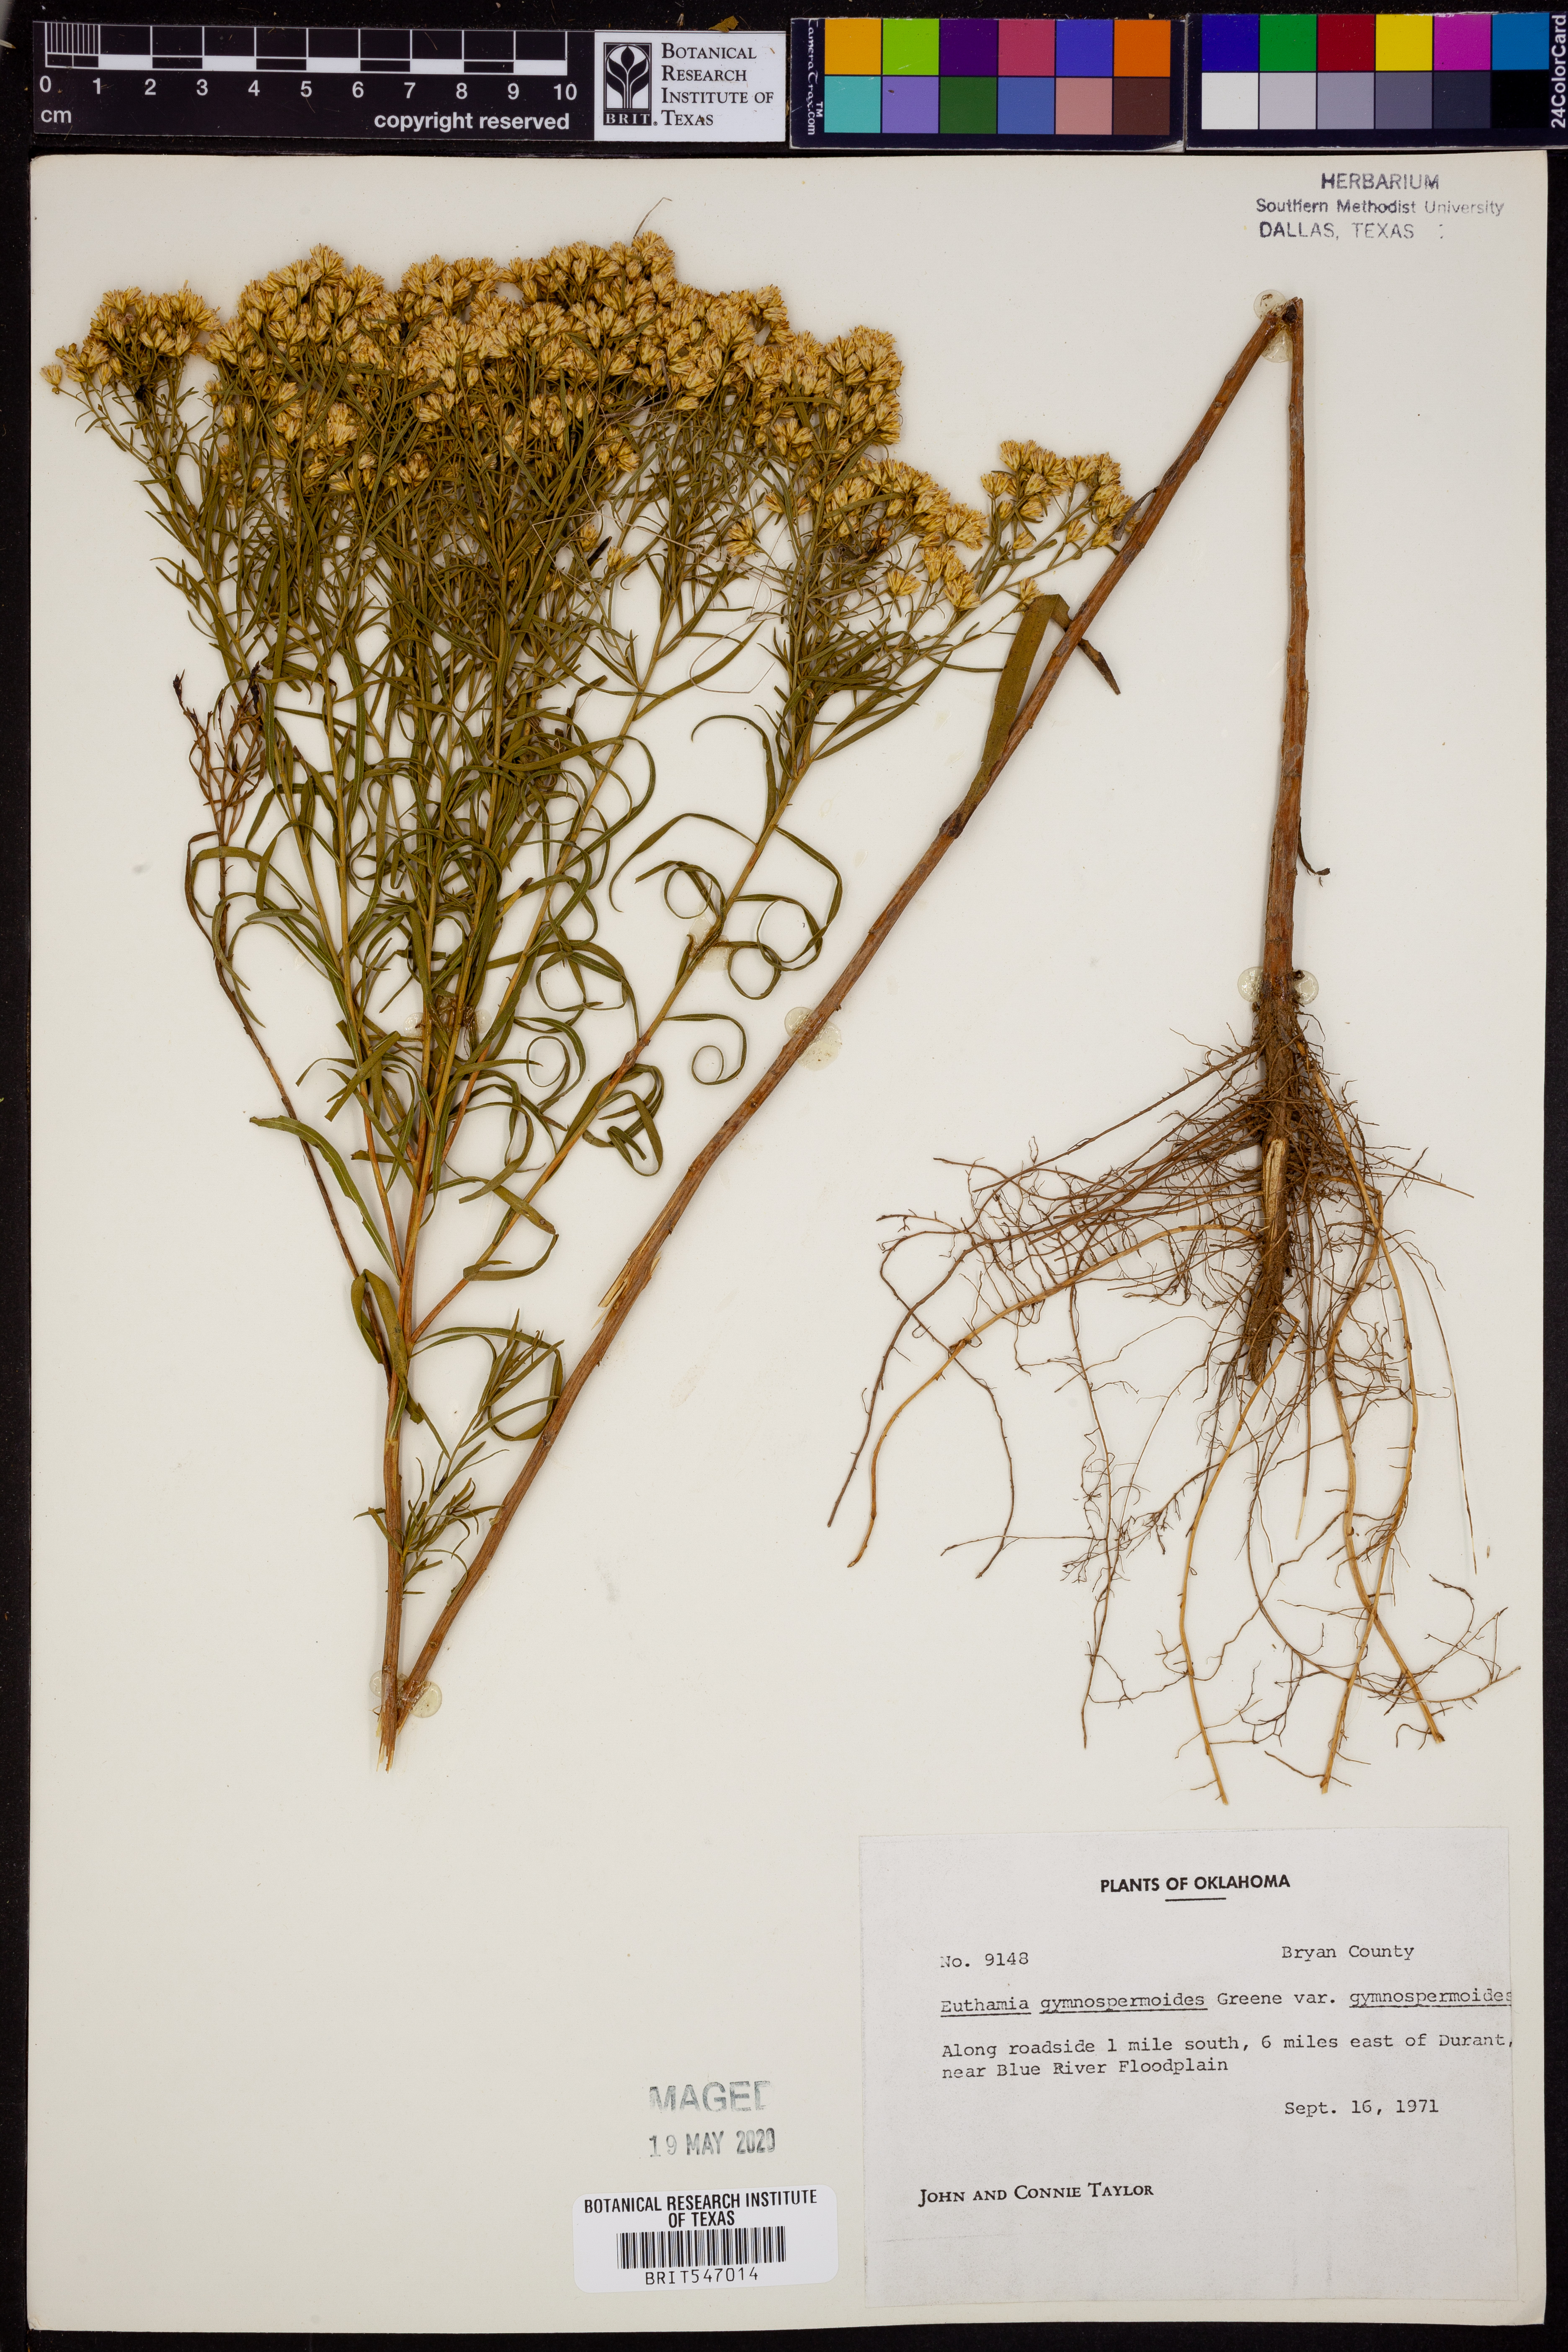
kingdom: Plantae
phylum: Tracheophyta
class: Magnoliopsida
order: Asterales
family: Asteraceae
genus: Euthamia
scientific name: Euthamia gymnospermoides
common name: Great plains goldentop
